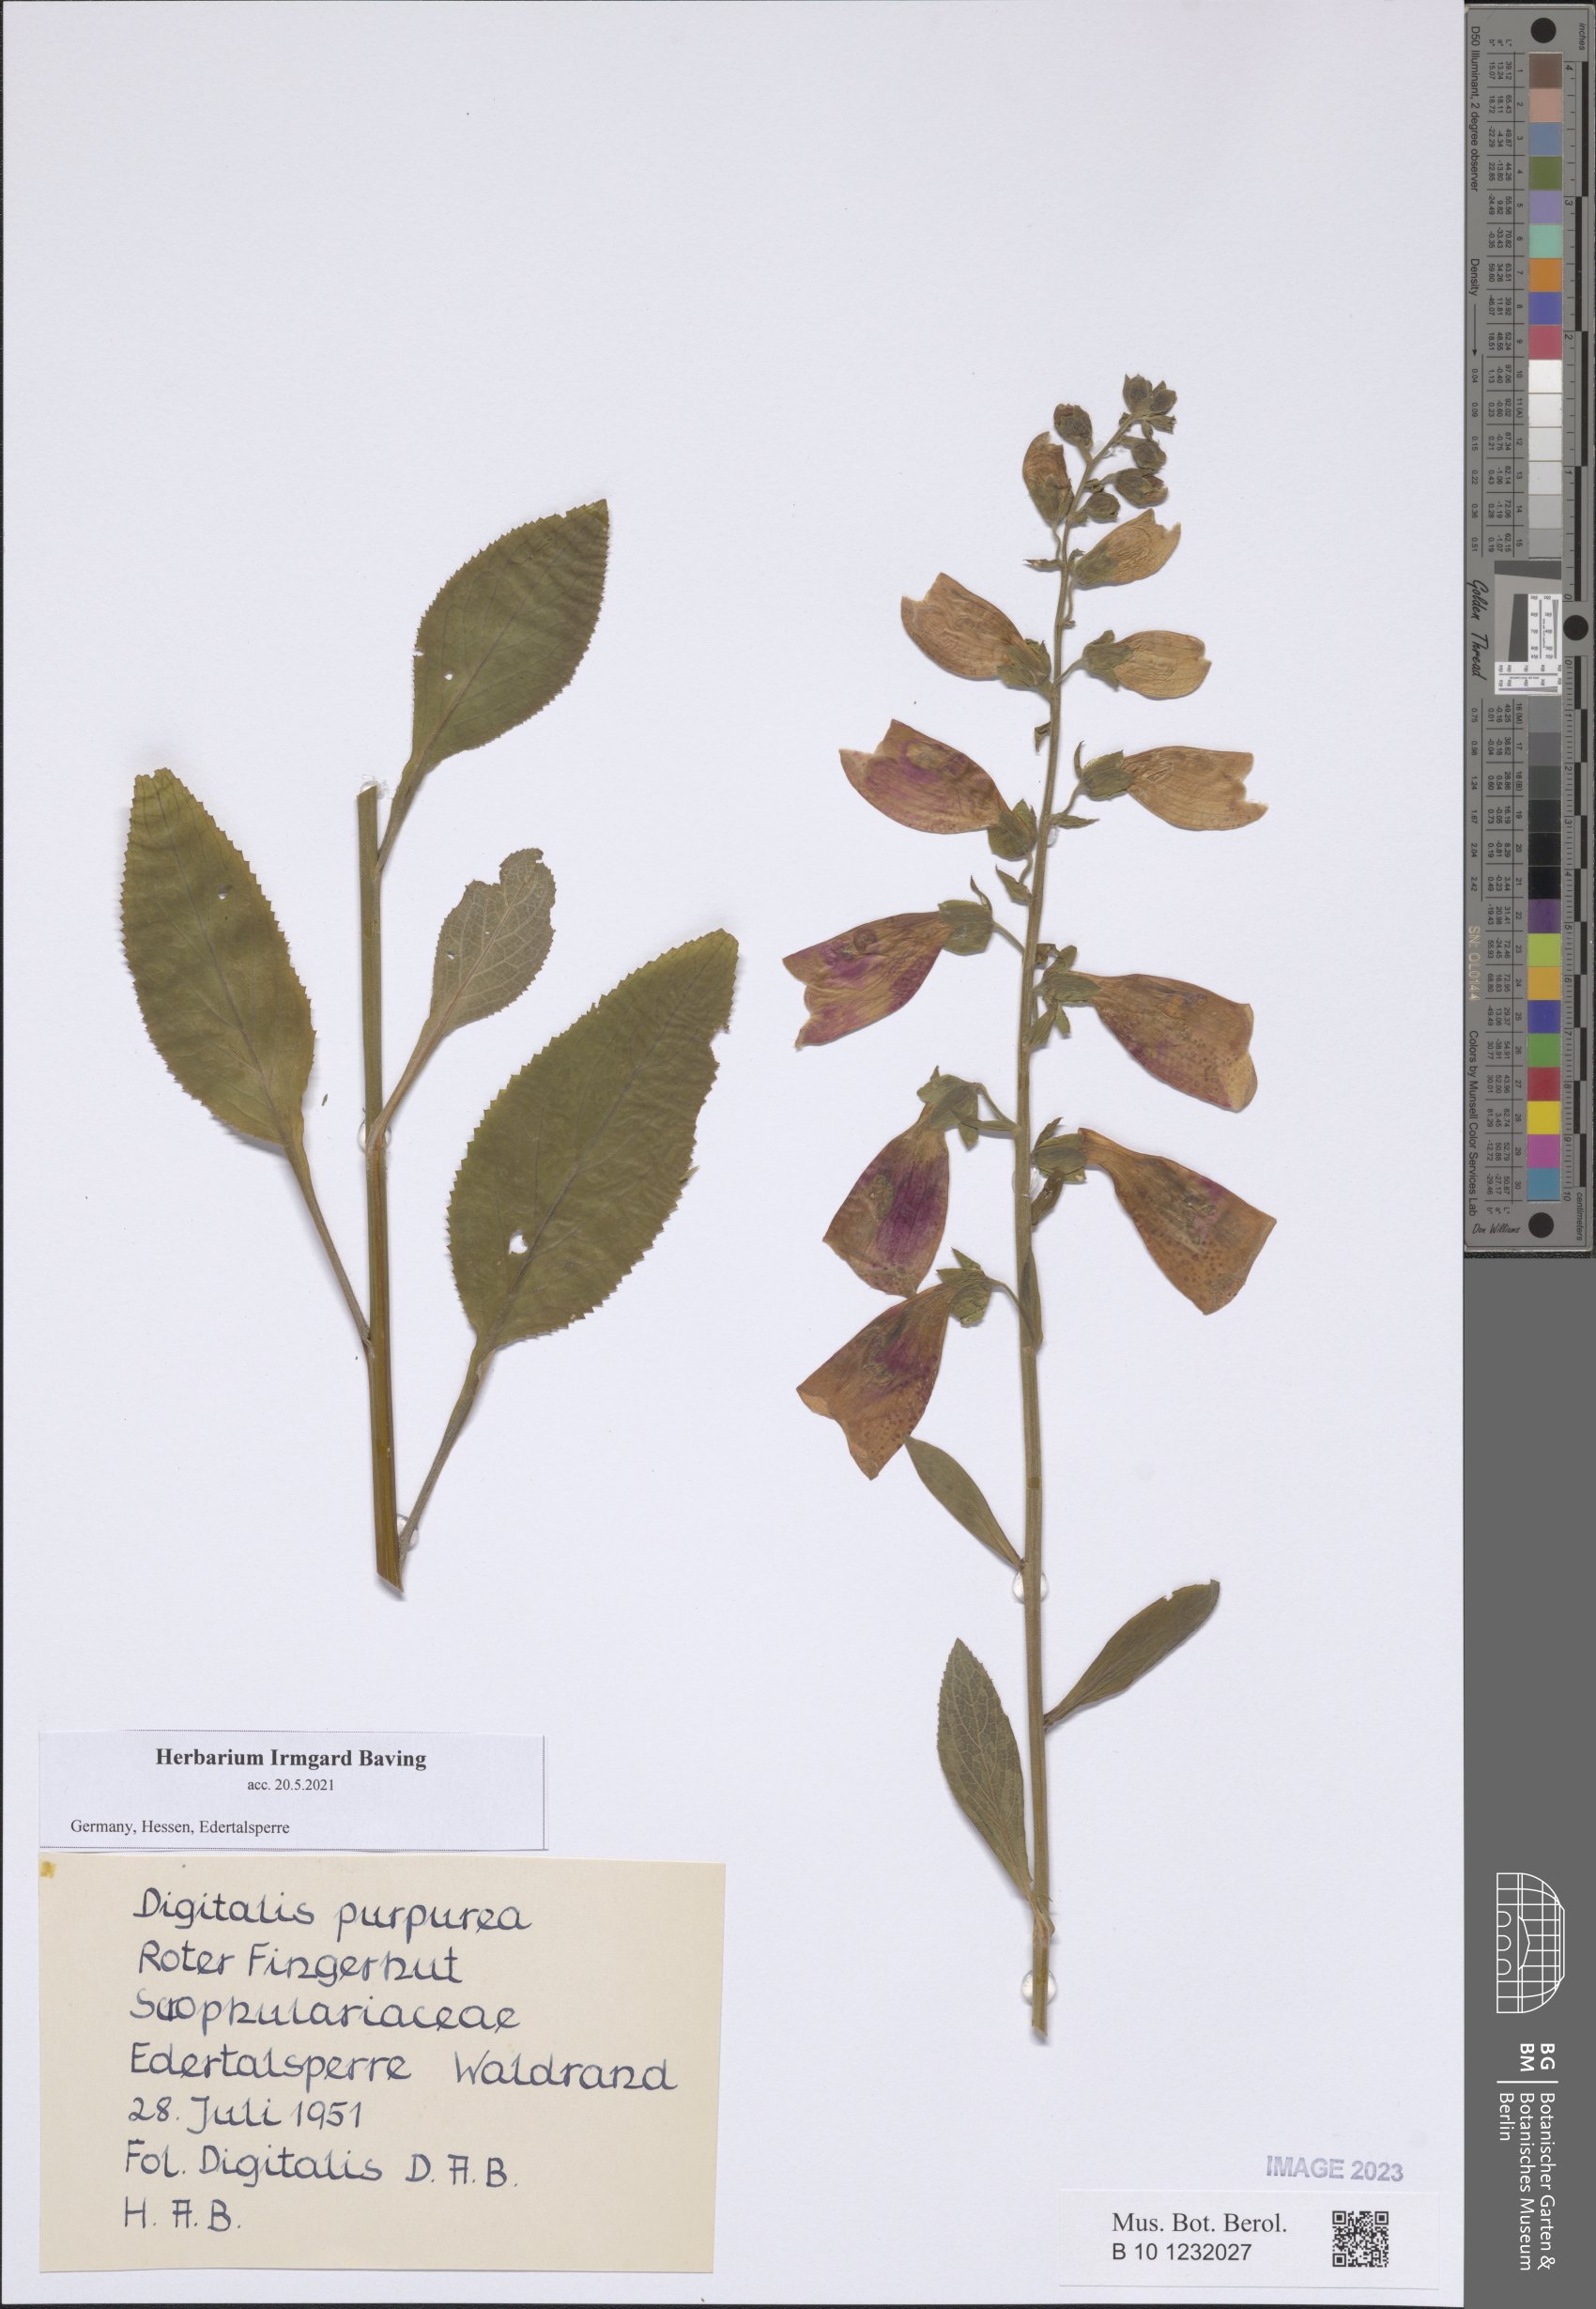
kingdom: Plantae
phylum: Tracheophyta
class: Magnoliopsida
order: Lamiales
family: Plantaginaceae
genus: Digitalis
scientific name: Digitalis purpurea
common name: Foxglove
